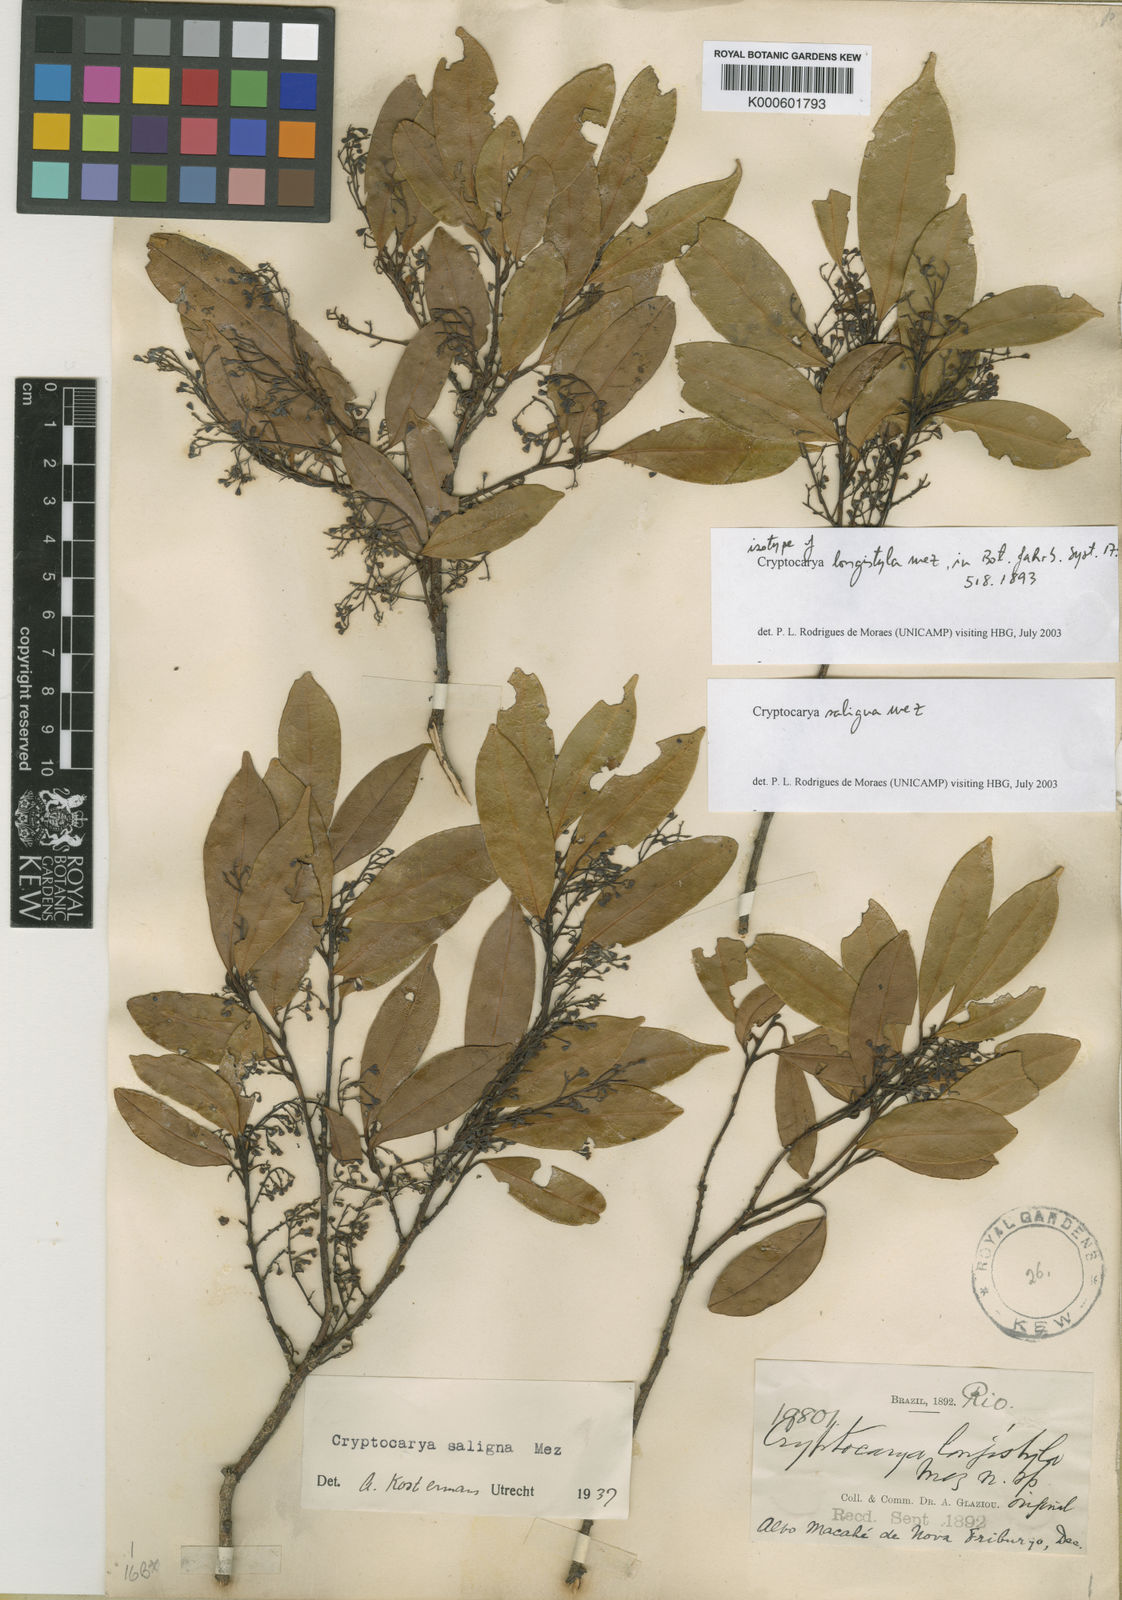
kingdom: Plantae
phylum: Tracheophyta
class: Magnoliopsida
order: Laurales
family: Lauraceae
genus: Cryptocarya
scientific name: Cryptocarya saligna
